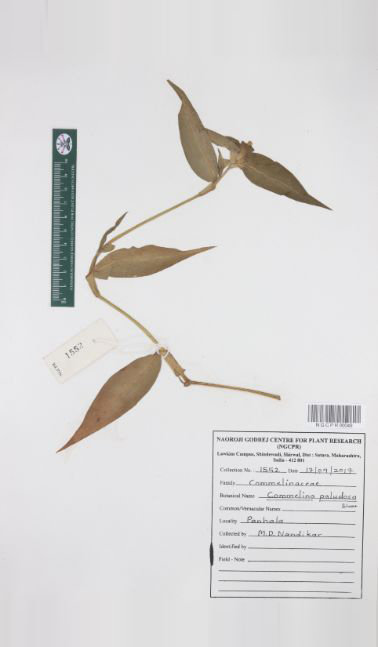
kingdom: Plantae
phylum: Tracheophyta
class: Liliopsida
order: Commelinales
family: Commelinaceae
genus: Commelina
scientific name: Commelina paludosa
